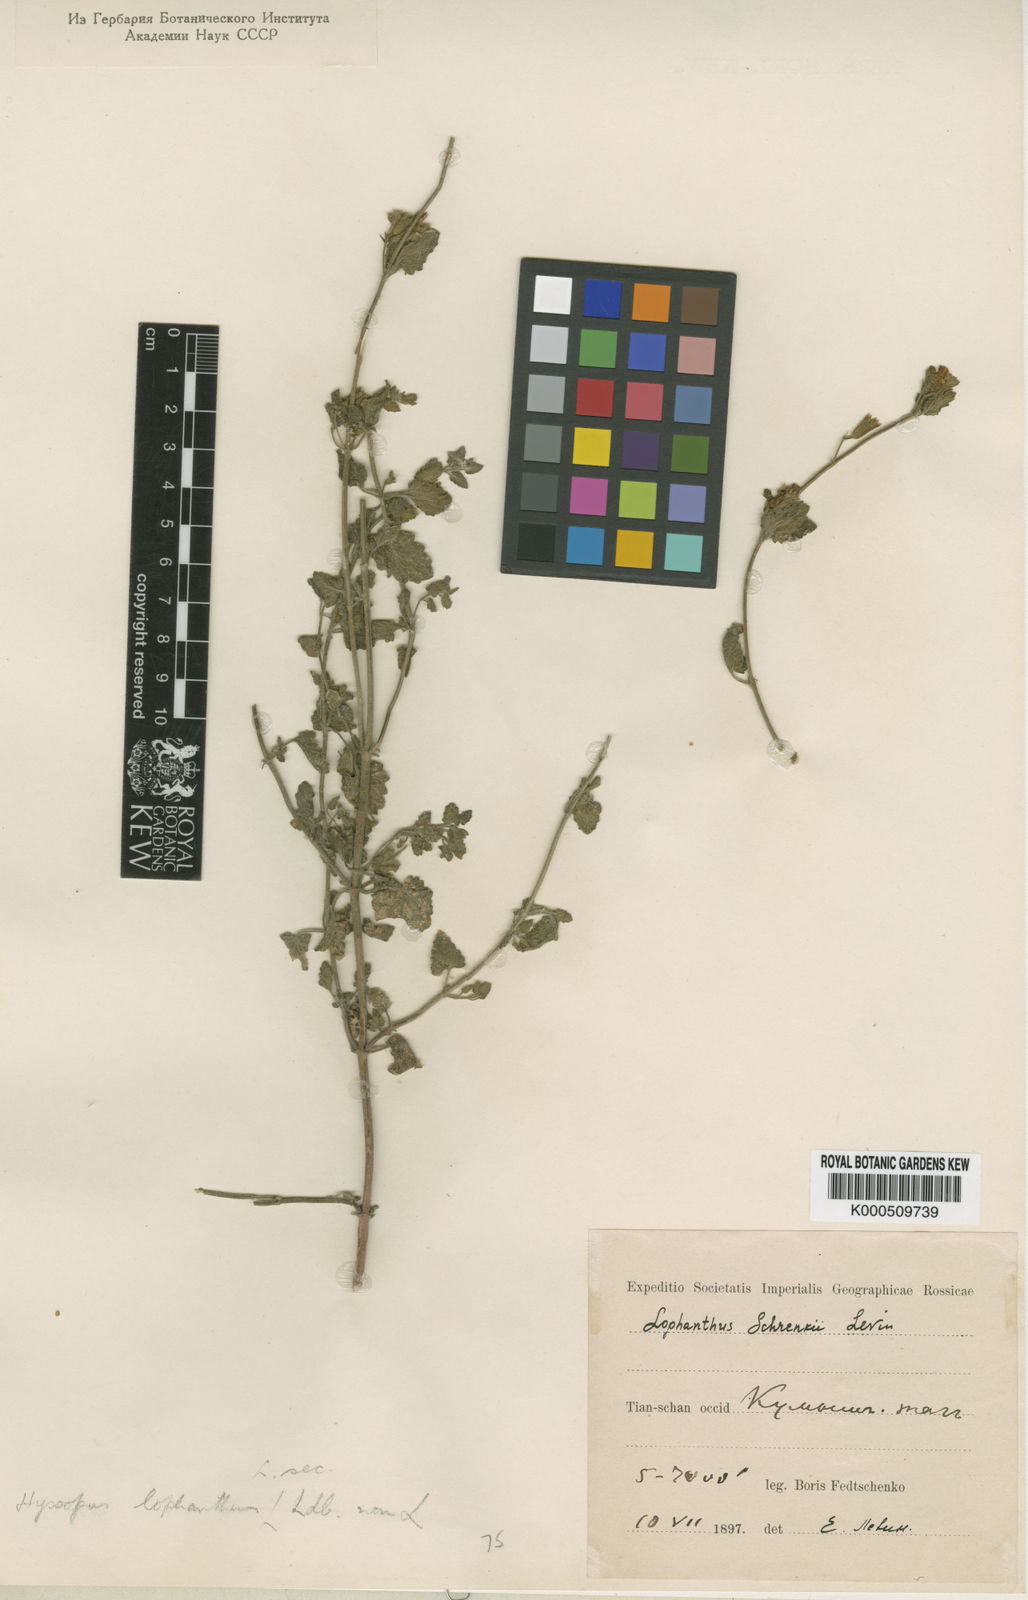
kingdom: Plantae
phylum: Tracheophyta
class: Magnoliopsida
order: Lamiales
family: Lamiaceae
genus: Lophanthus
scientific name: Lophanthus schrenkii
